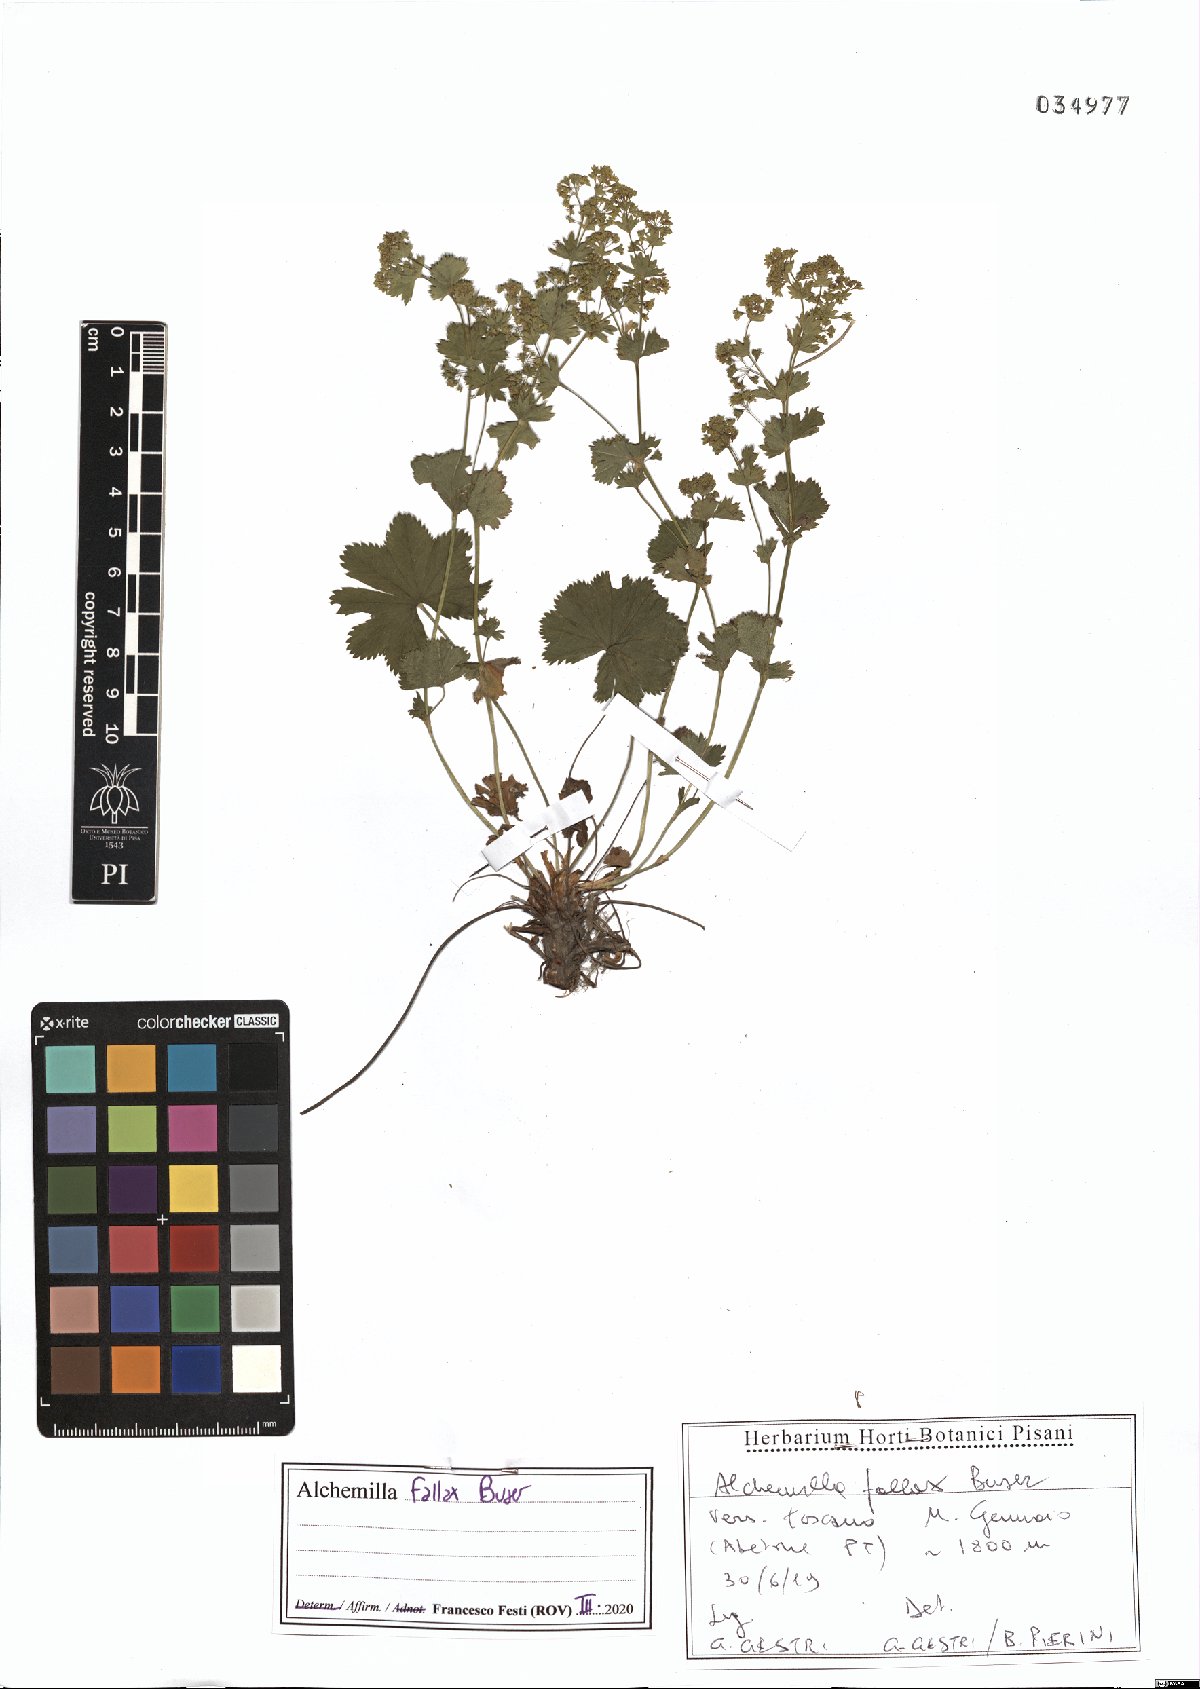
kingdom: Plantae
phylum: Tracheophyta
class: Magnoliopsida
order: Rosales
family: Rosaceae
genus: Alchemilla
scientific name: Alchemilla fallax
